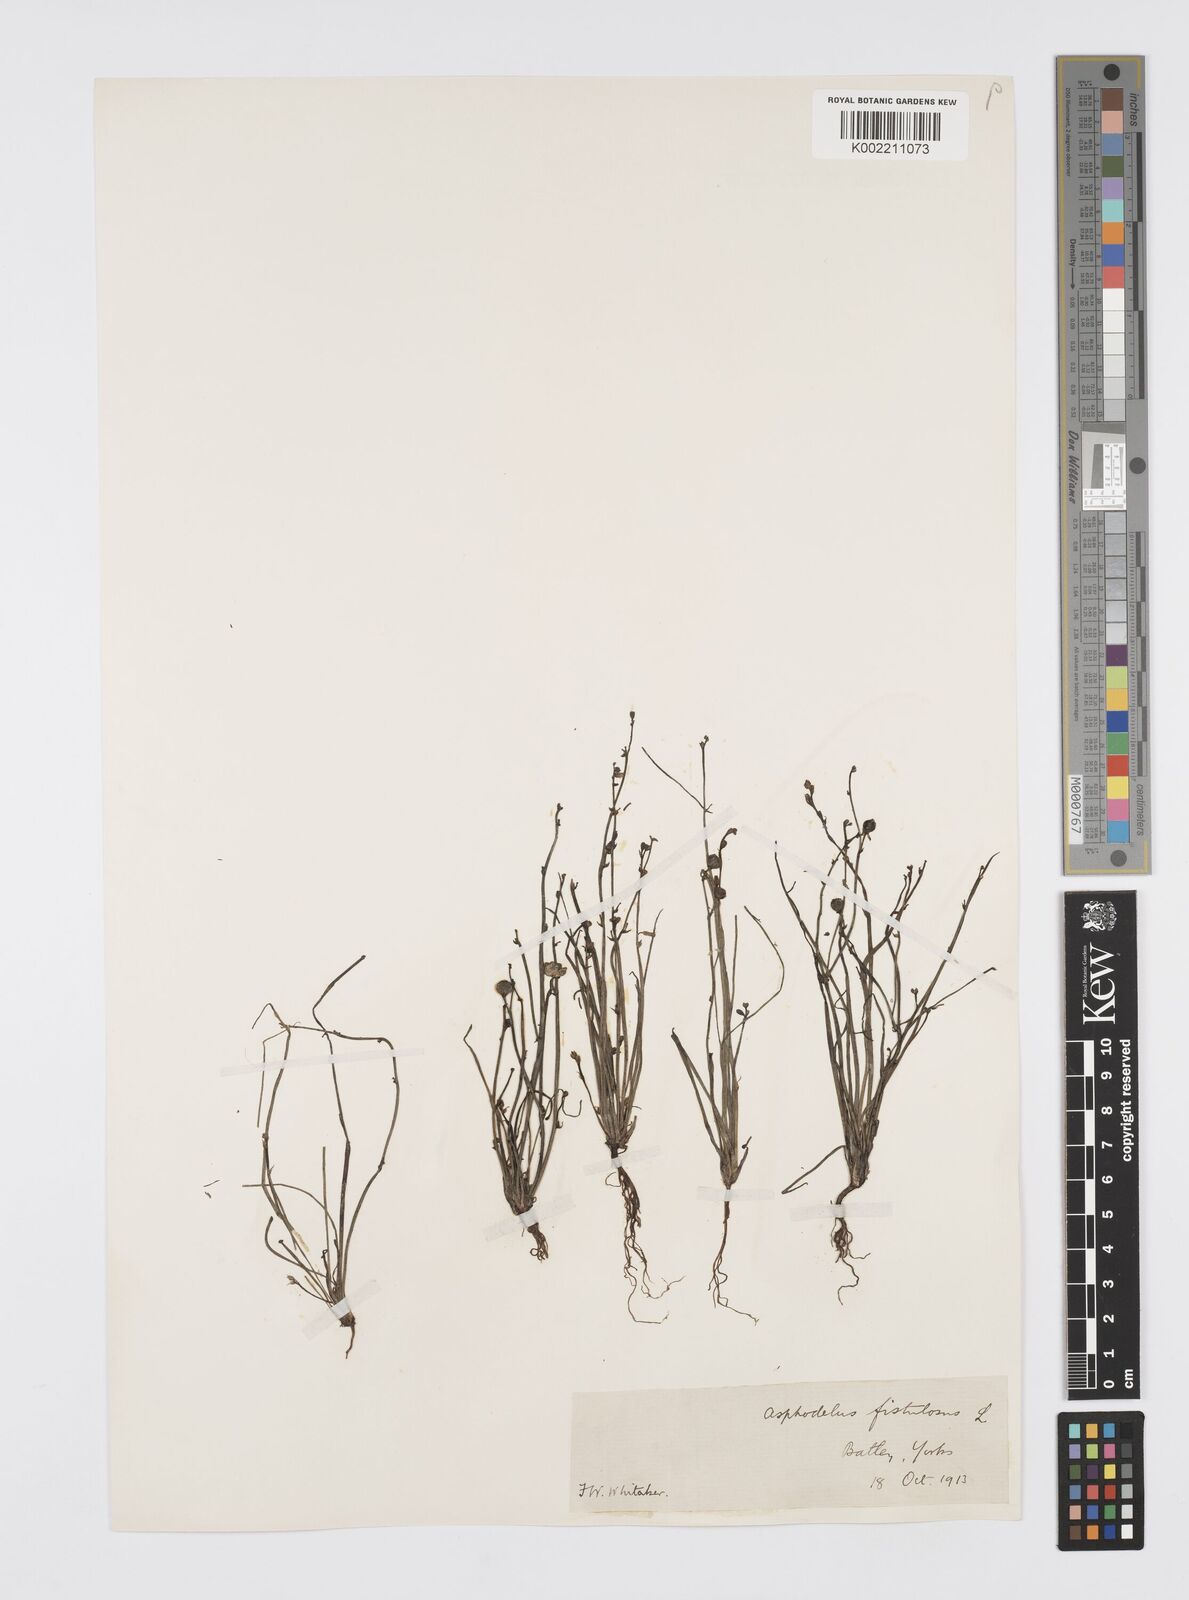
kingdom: Plantae
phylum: Tracheophyta
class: Liliopsida
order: Asparagales
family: Asphodelaceae
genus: Asphodelus
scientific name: Asphodelus tenuifolius
